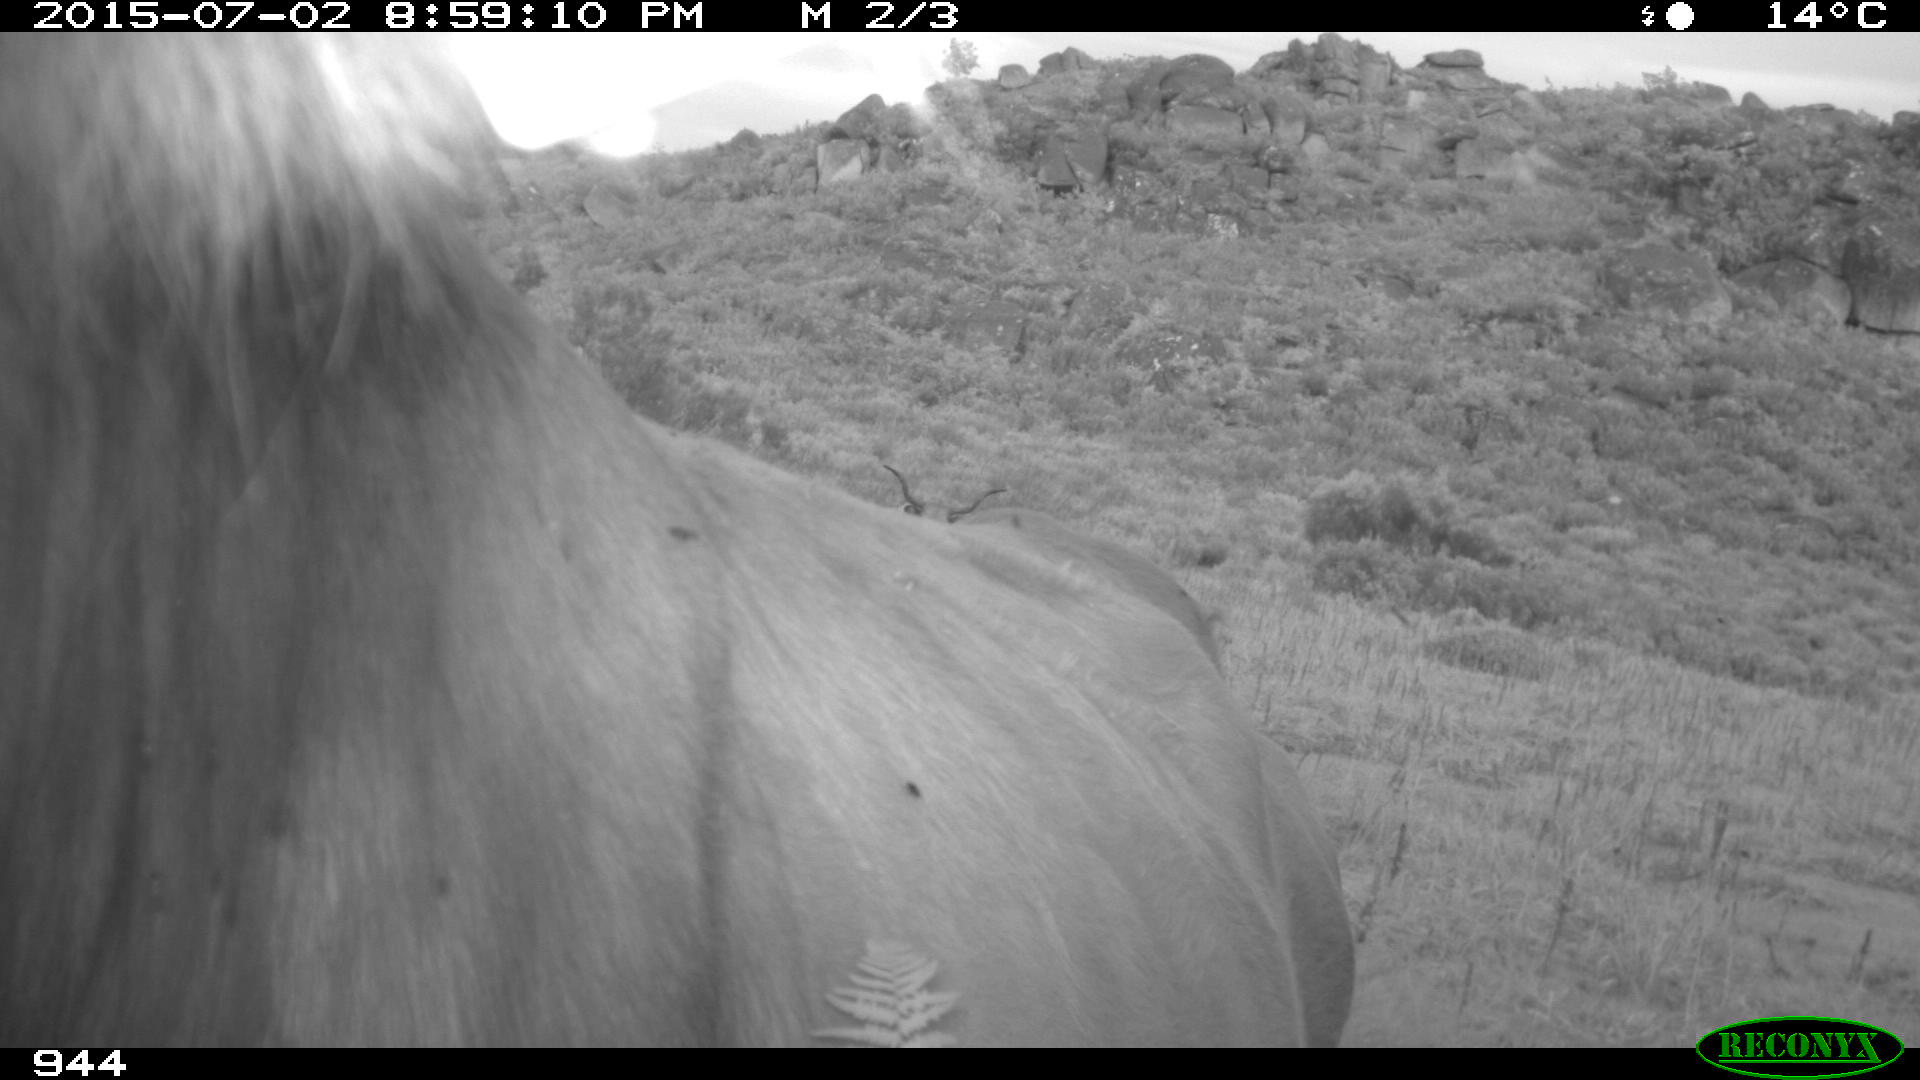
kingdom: Animalia
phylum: Chordata
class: Mammalia
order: Artiodactyla
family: Bovidae
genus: Bos
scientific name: Bos taurus
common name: Domesticated cattle
